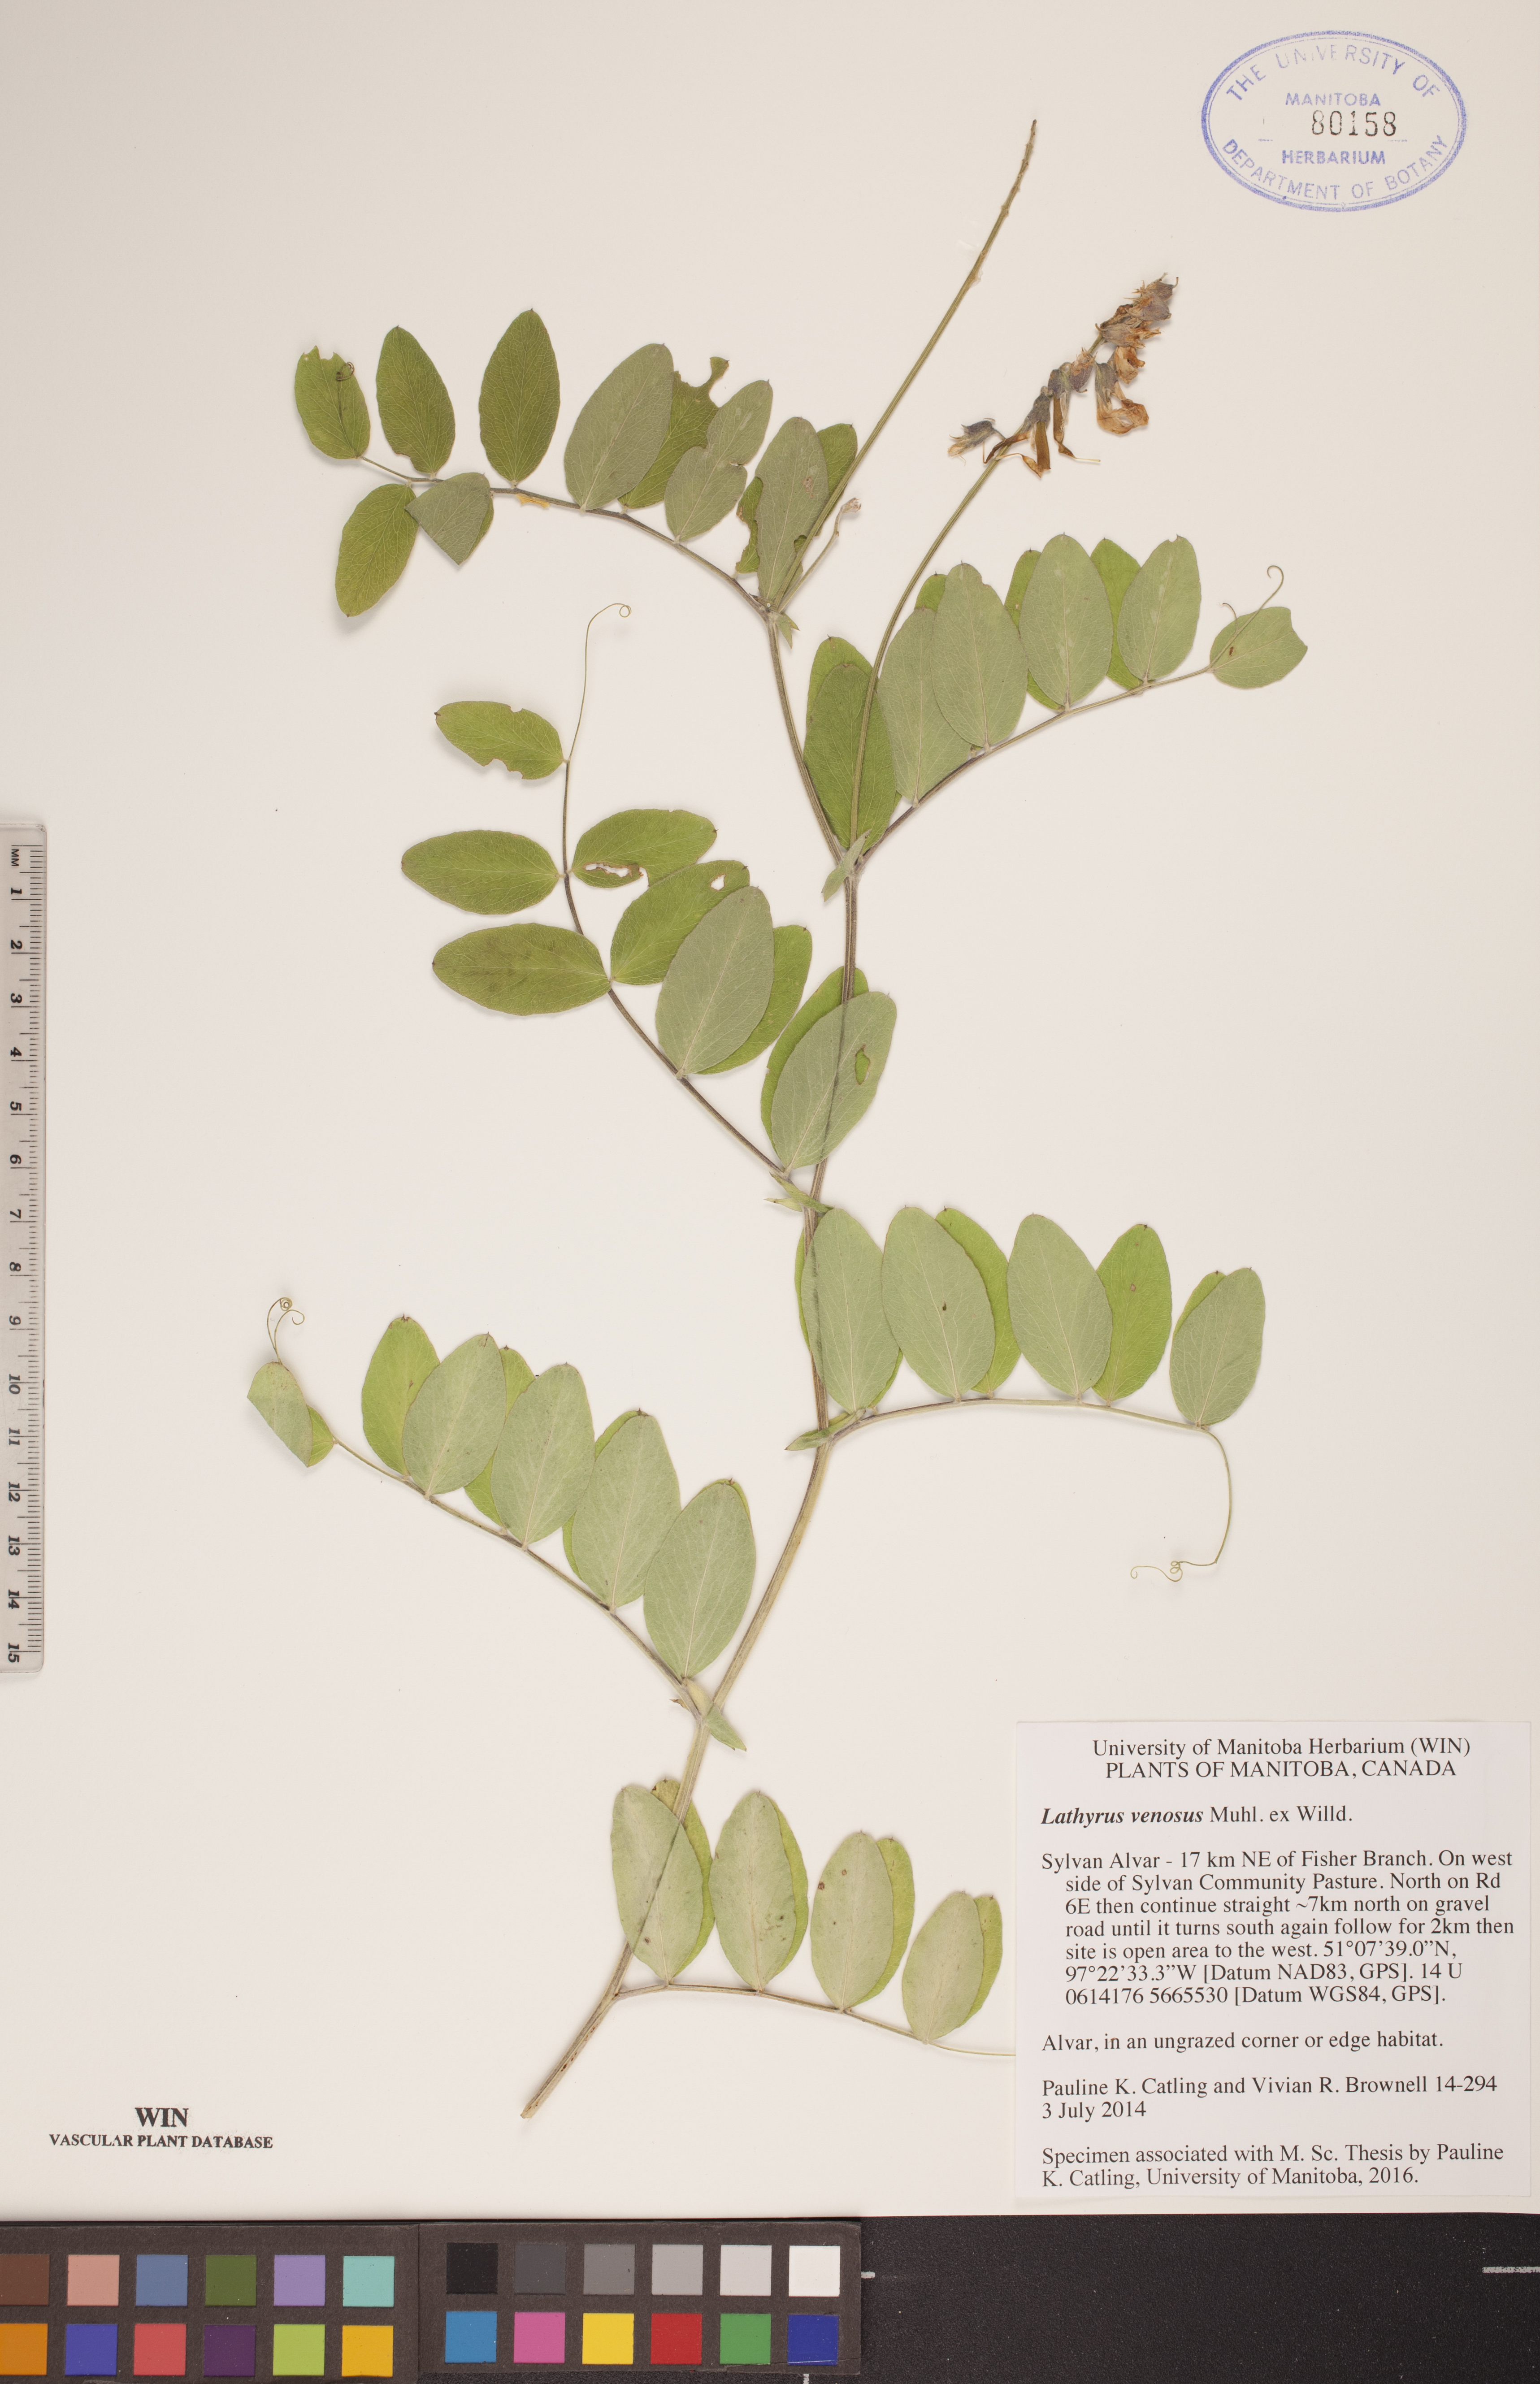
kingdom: Plantae
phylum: Tracheophyta
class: Magnoliopsida
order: Fabales
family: Fabaceae
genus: Lathyrus
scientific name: Lathyrus venosus
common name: Forest-pea
